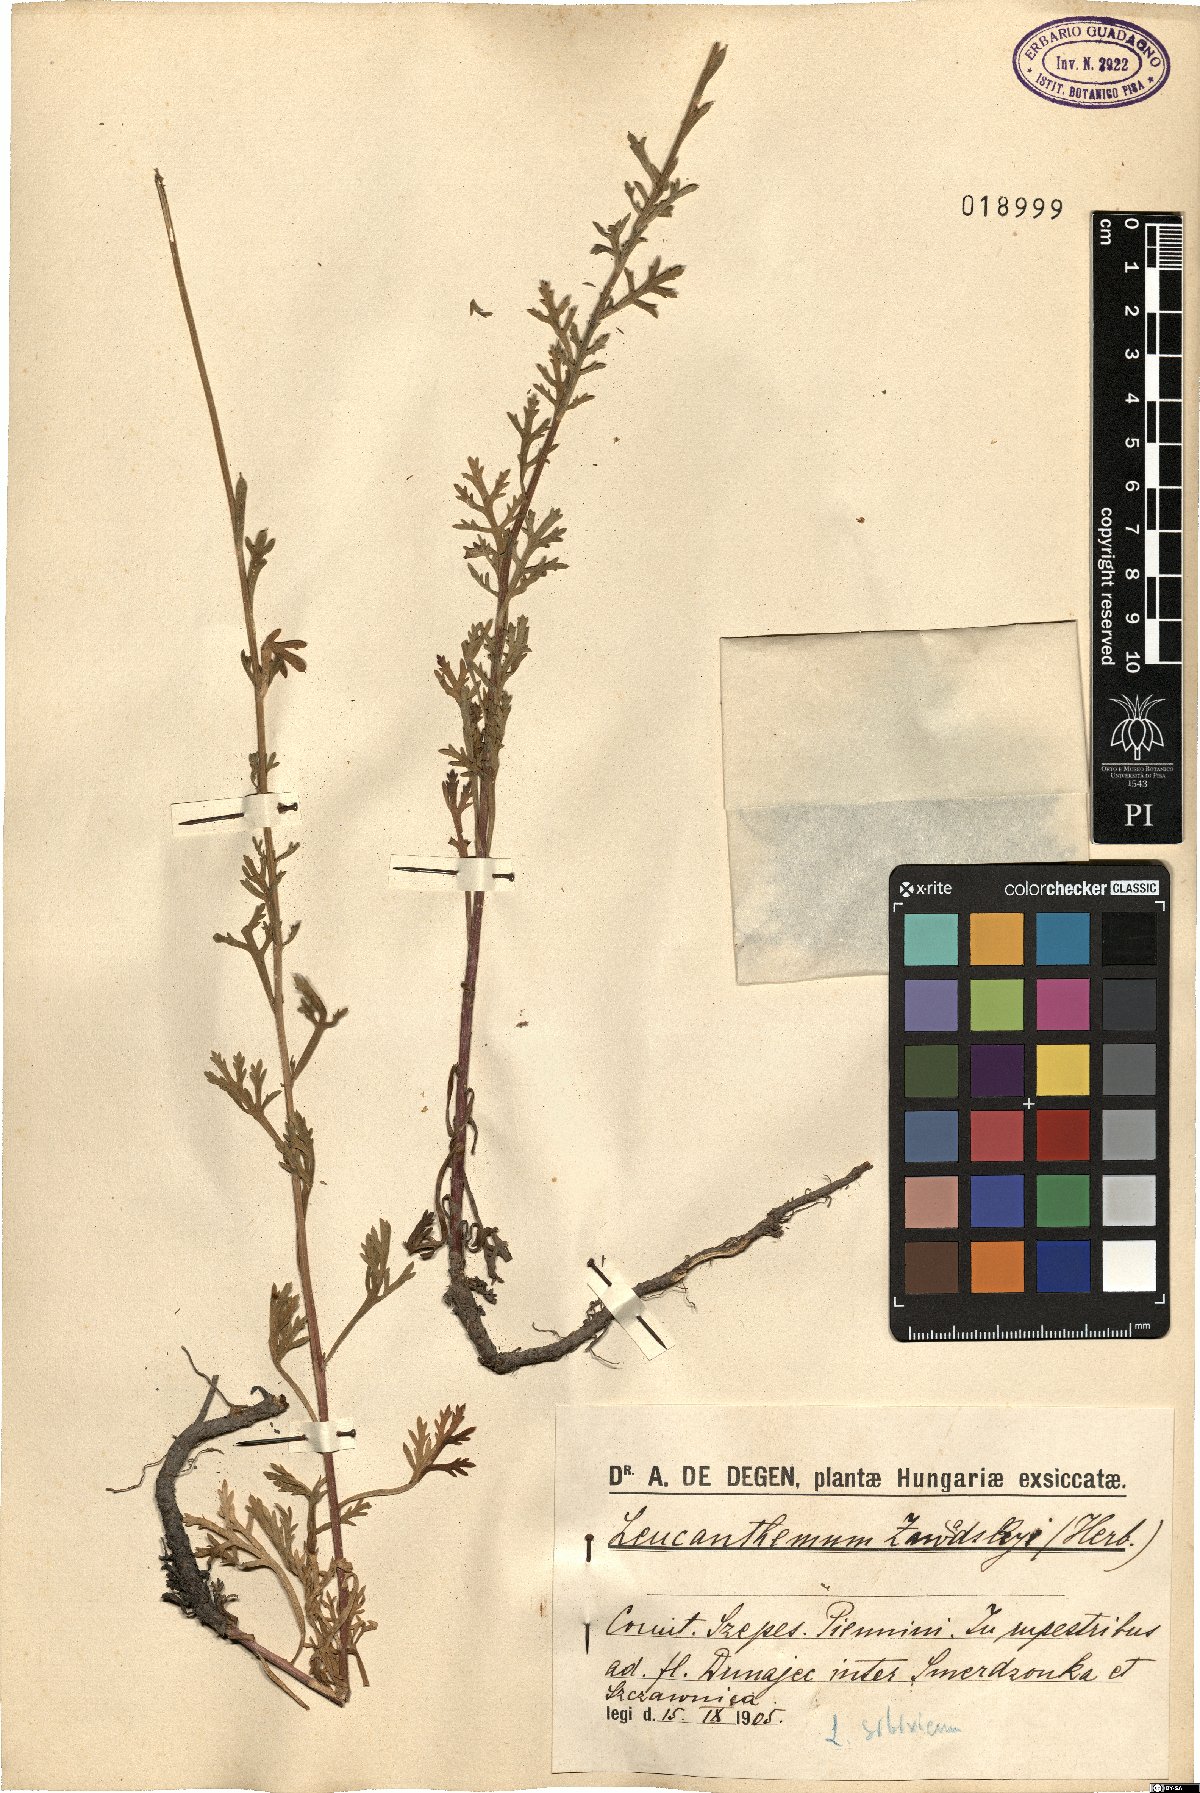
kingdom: Plantae
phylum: Tracheophyta
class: Magnoliopsida
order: Asterales
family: Asteraceae
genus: Leucanthemum
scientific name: Leucanthemum zawadskii
